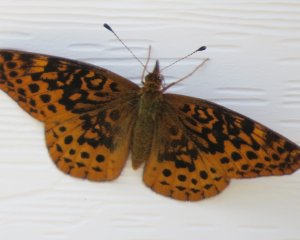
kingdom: Animalia
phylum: Arthropoda
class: Insecta
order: Lepidoptera
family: Nymphalidae
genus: Clossiana
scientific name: Clossiana toddi
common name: Meadow Fritillary
